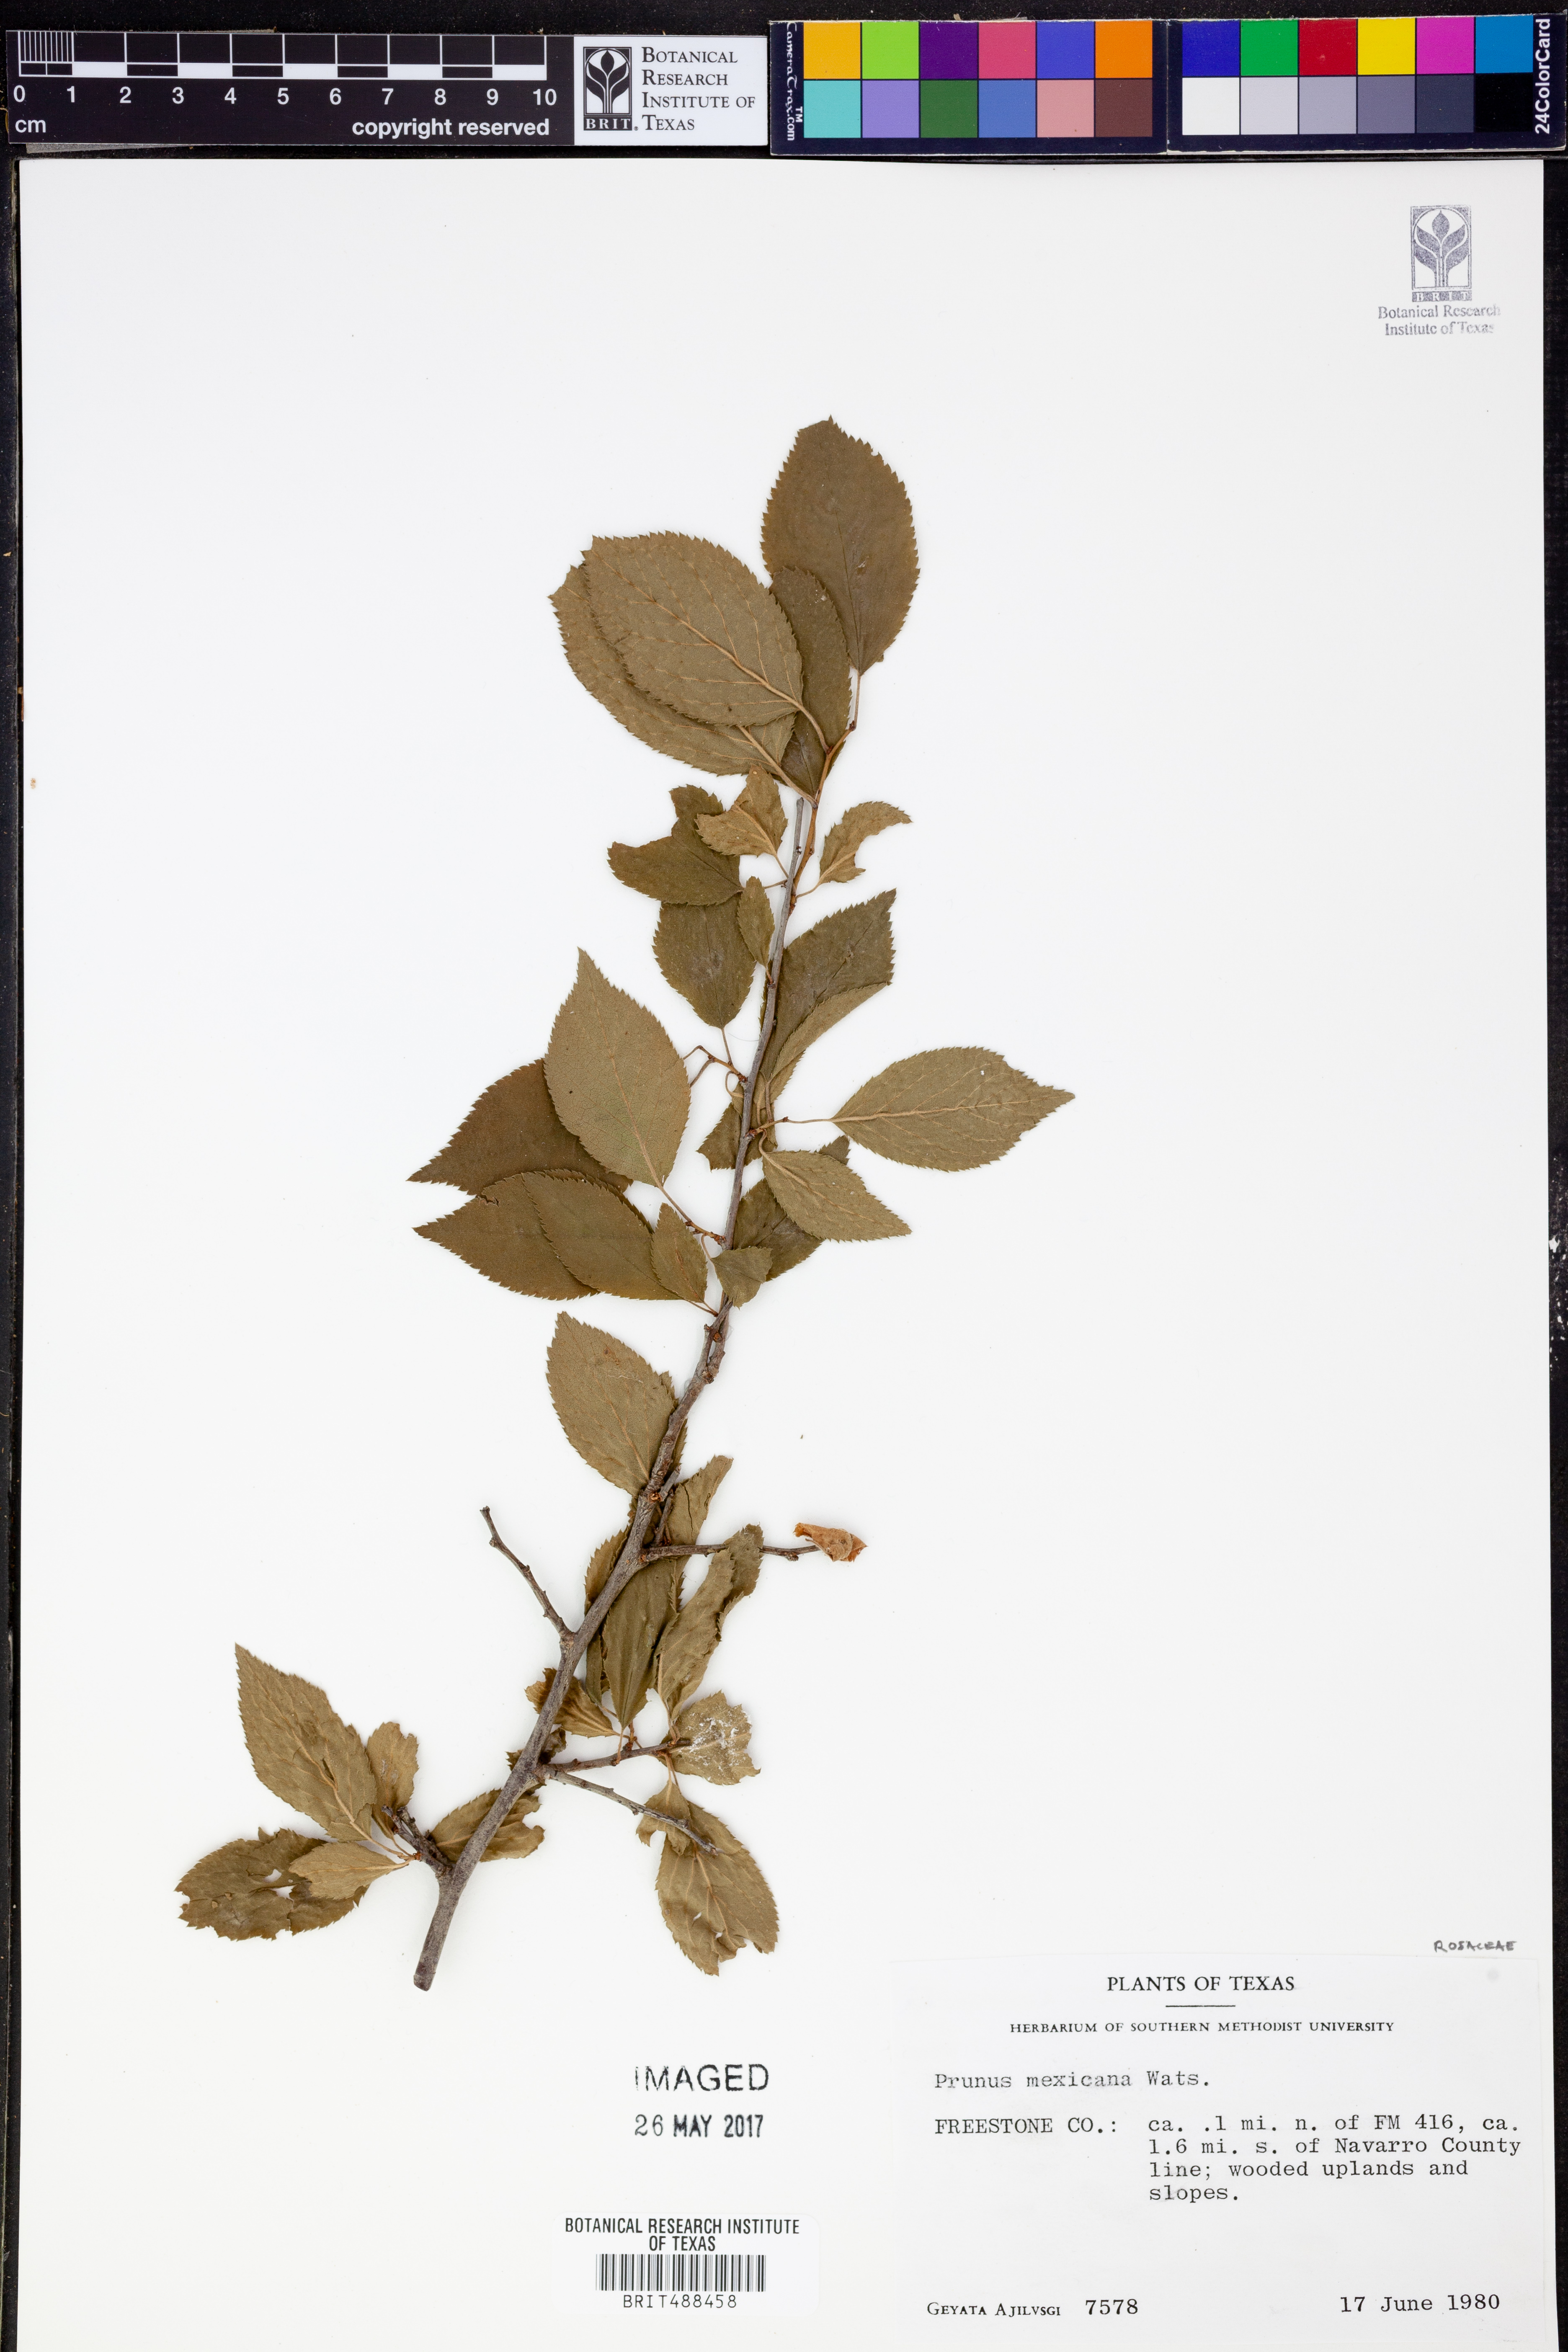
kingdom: Plantae
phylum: Tracheophyta
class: Magnoliopsida
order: Rosales
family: Rosaceae
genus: Prunus
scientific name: Prunus mexicana
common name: Mexican plum
